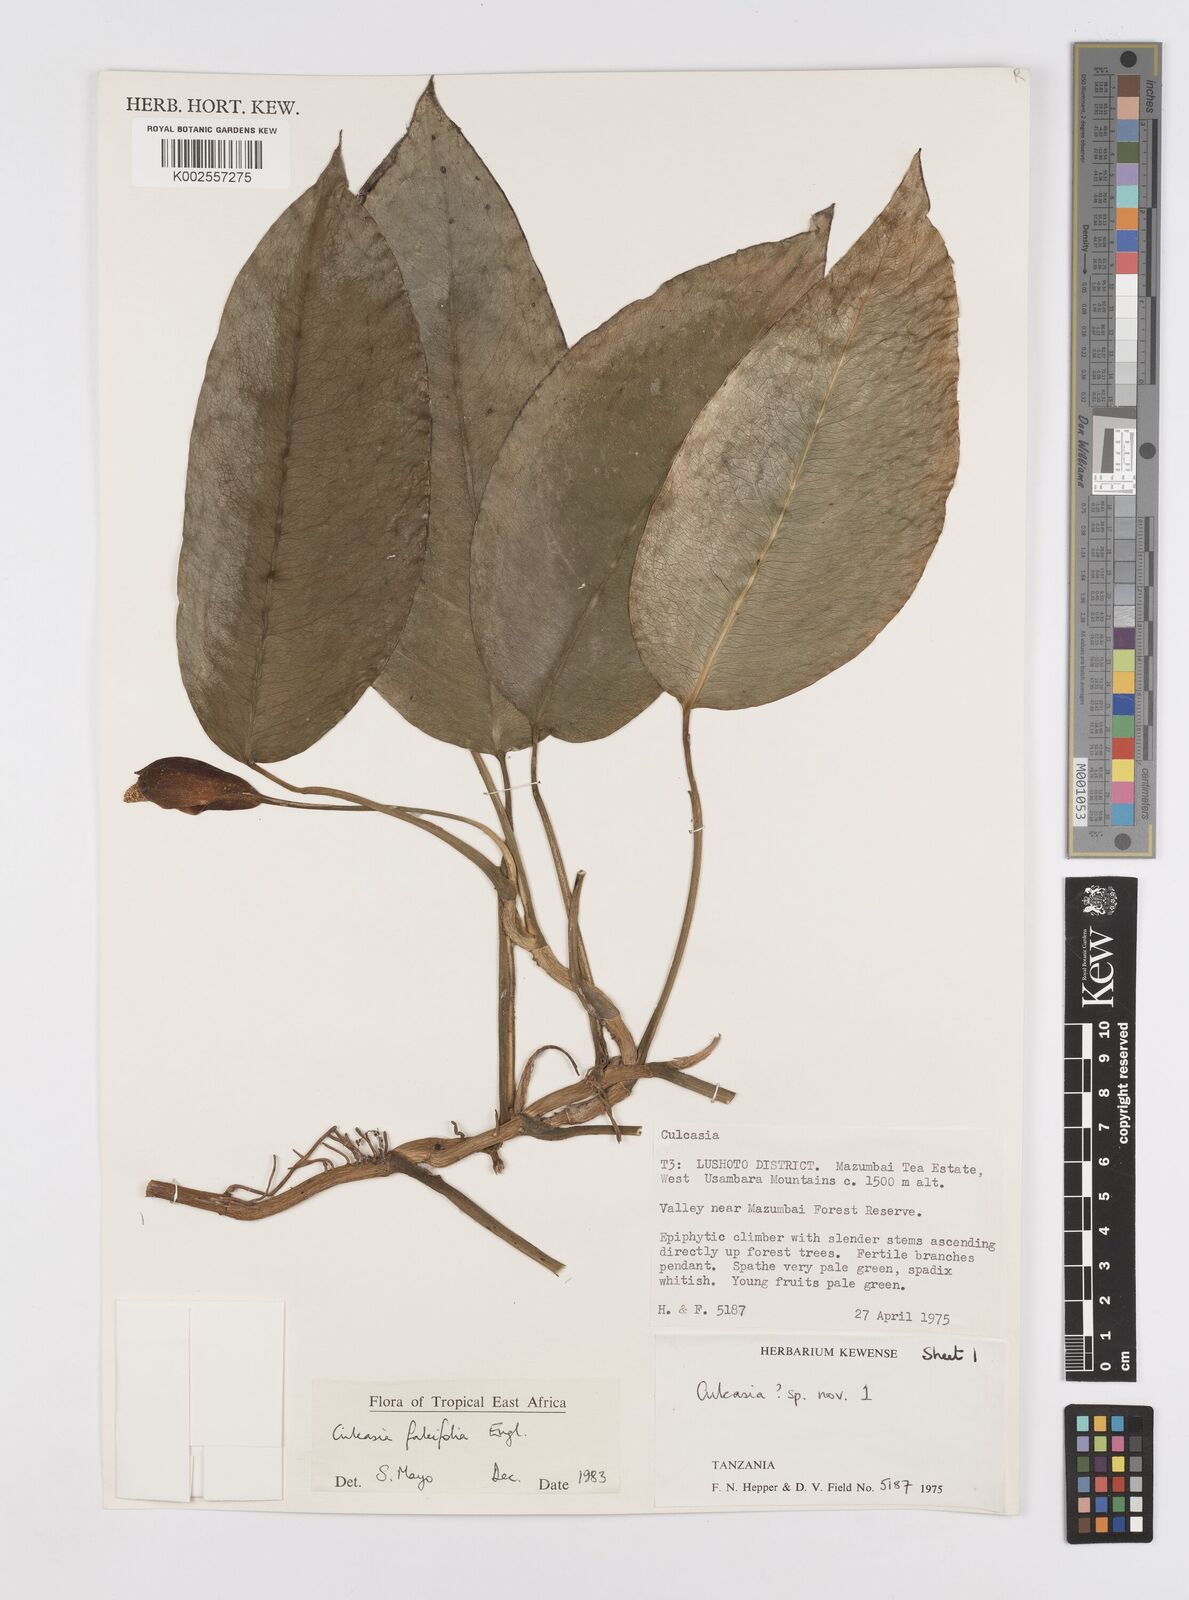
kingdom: Plantae
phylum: Tracheophyta
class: Liliopsida
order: Alismatales
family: Araceae
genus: Culcasia
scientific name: Culcasia falcifolia
